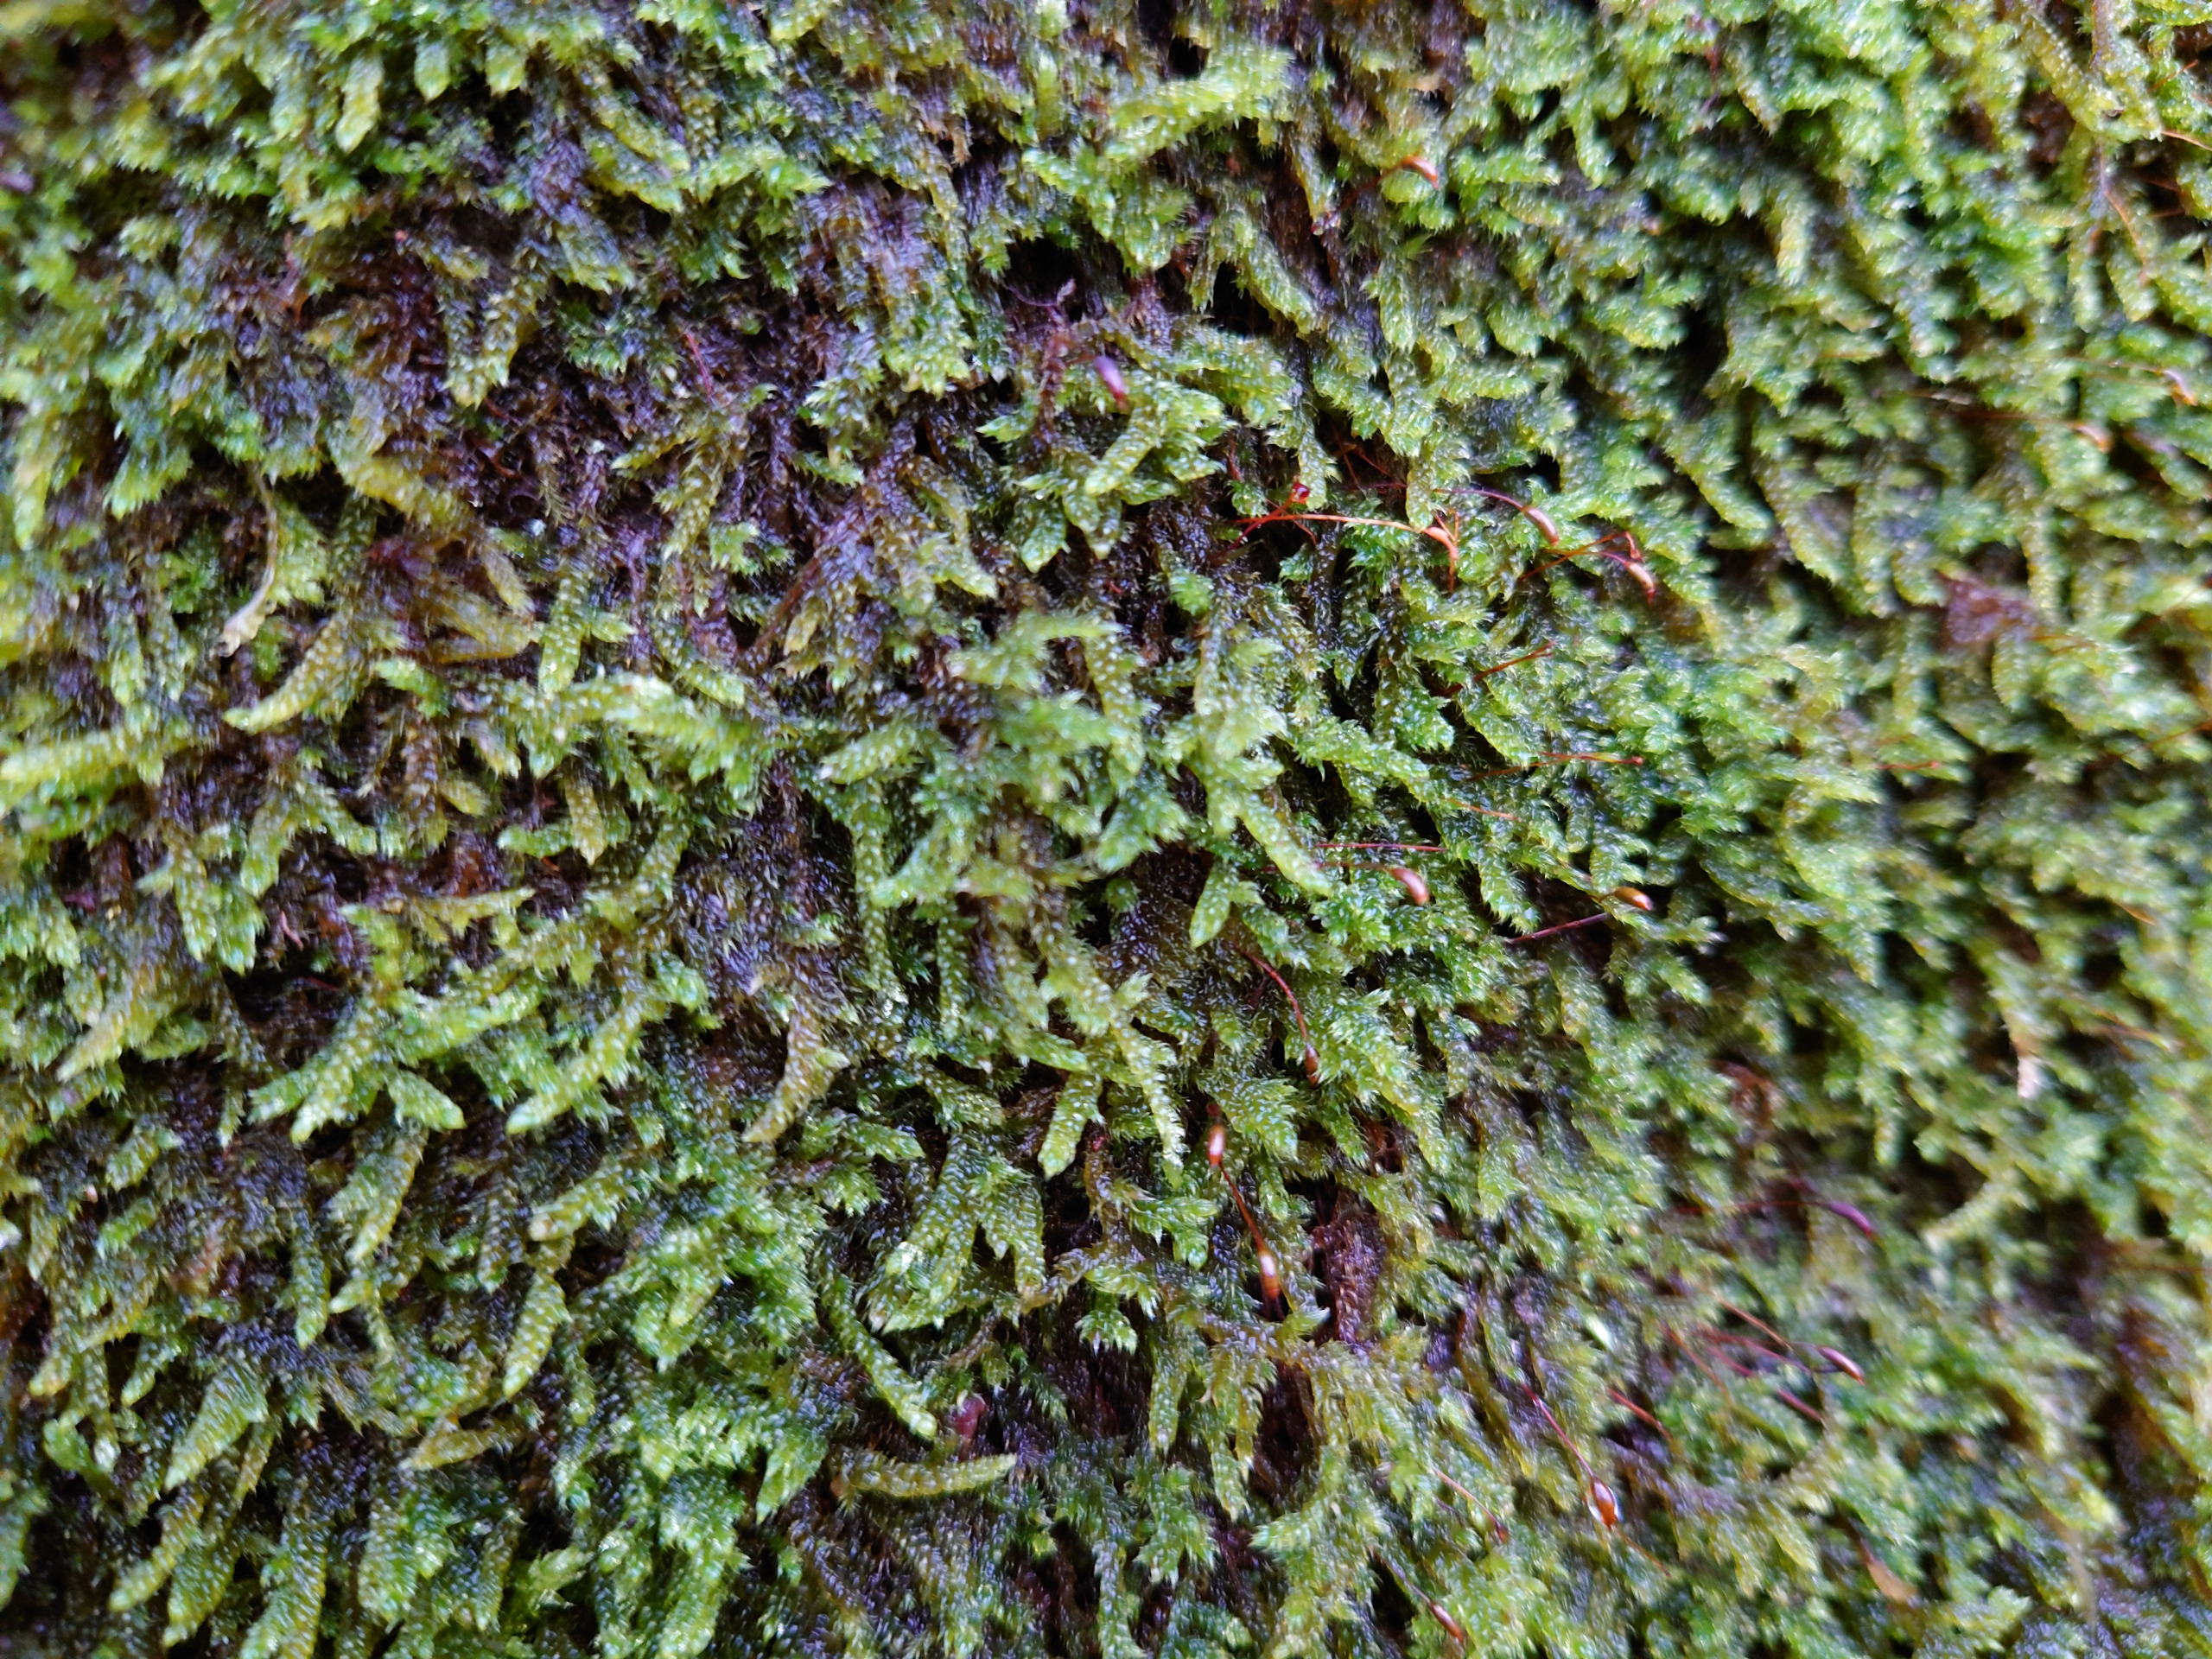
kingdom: Plantae
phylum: Bryophyta
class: Bryopsida
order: Hypnales
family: Hypnaceae
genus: Hypnum
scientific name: Hypnum cupressiforme
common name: Almindelig cypresmos
